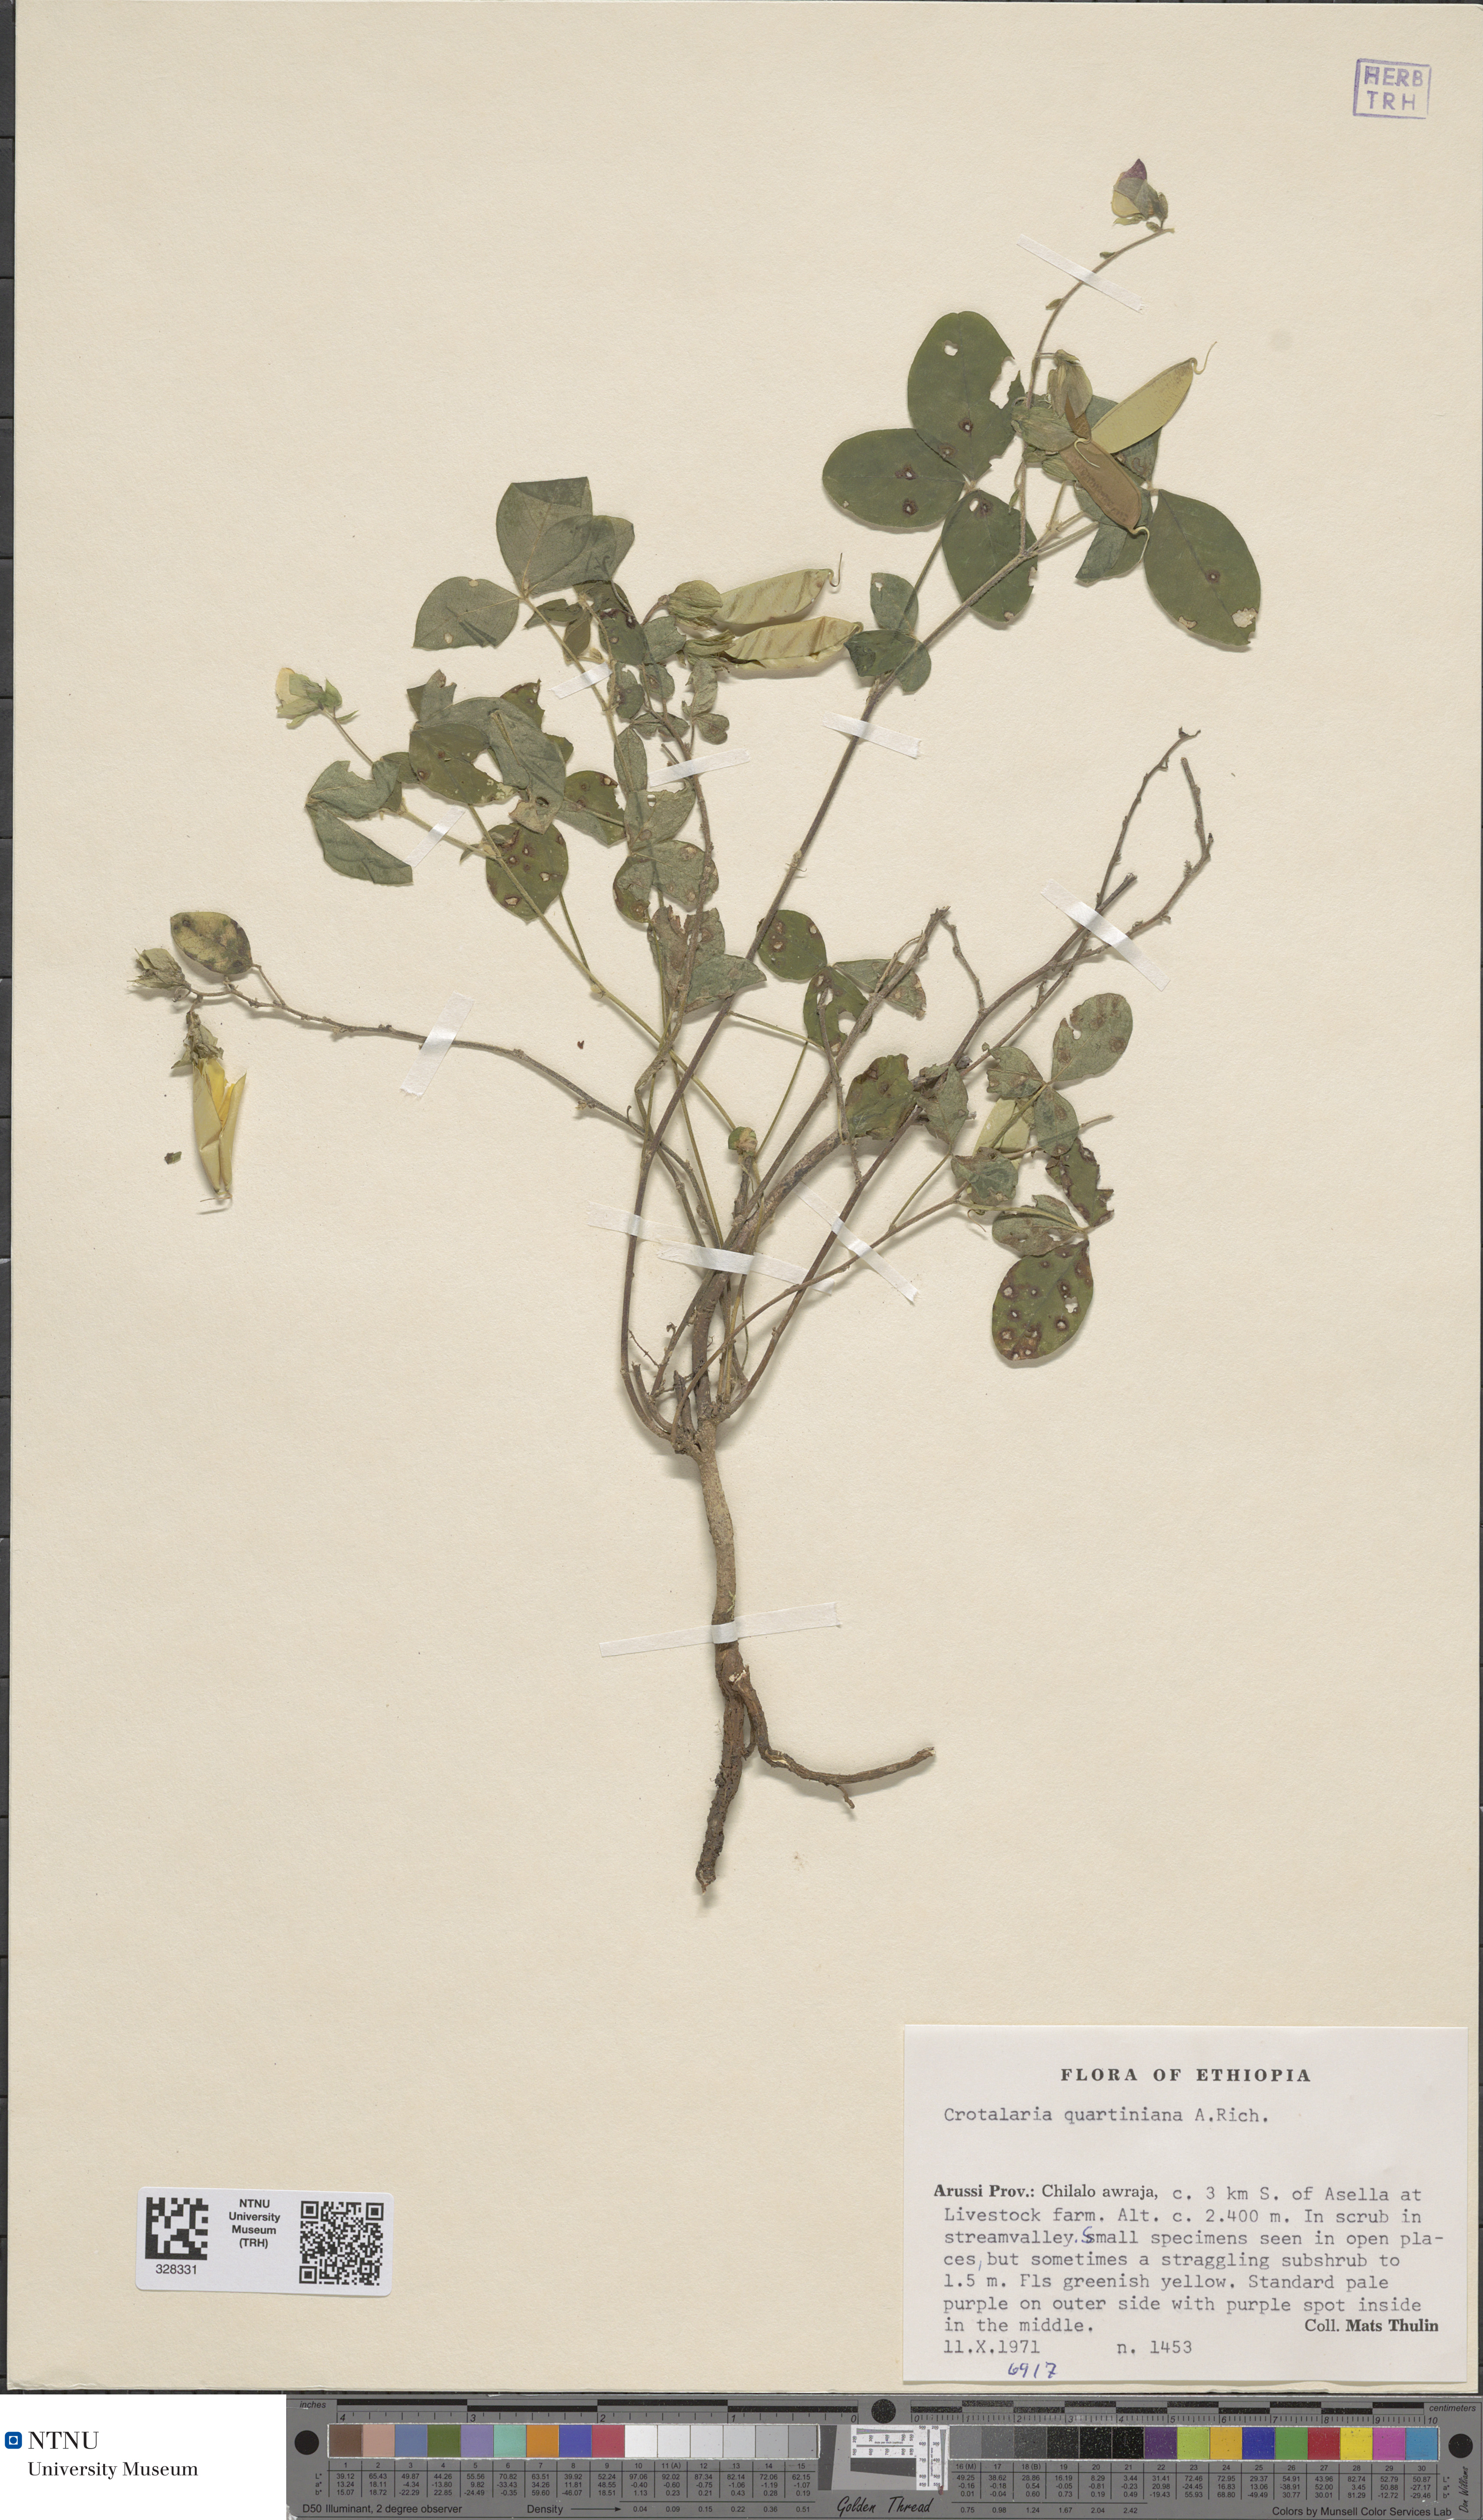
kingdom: Plantae
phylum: Tracheophyta
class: Magnoliopsida
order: Fabales
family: Fabaceae
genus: Crotalaria
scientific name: Crotalaria quartiniana
